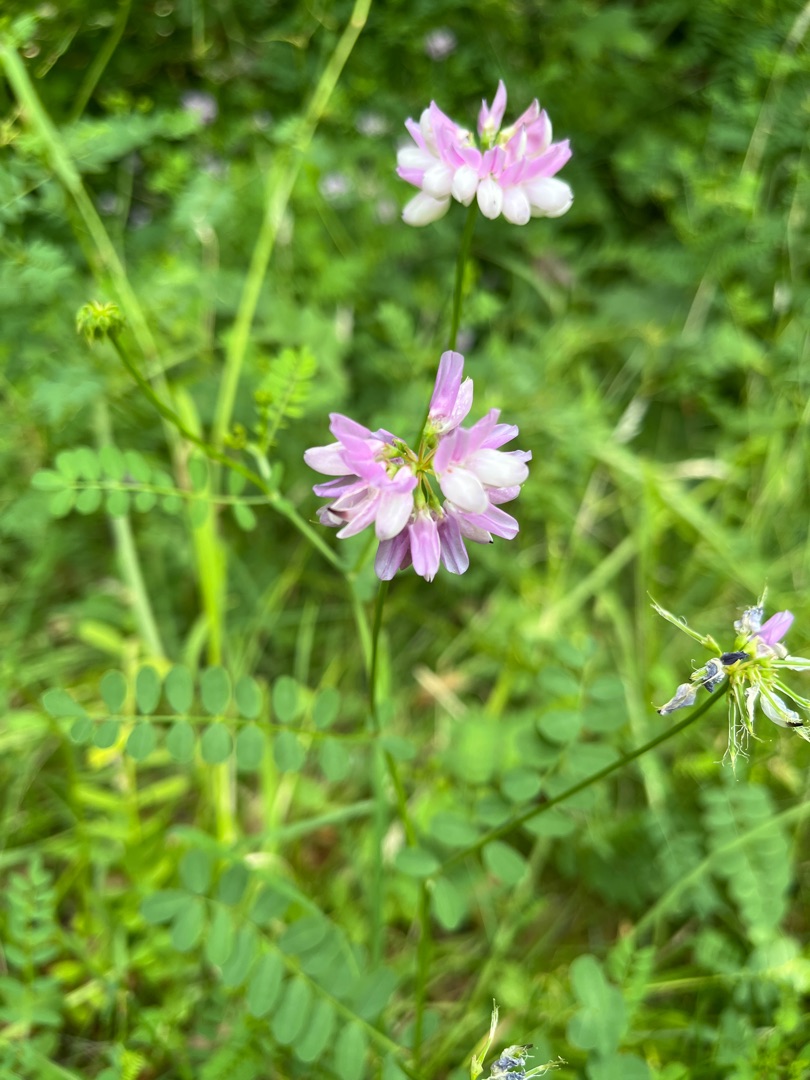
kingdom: Plantae
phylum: Tracheophyta
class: Magnoliopsida
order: Fabales
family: Fabaceae
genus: Coronilla
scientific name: Coronilla varia
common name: Giftig kronvikke
